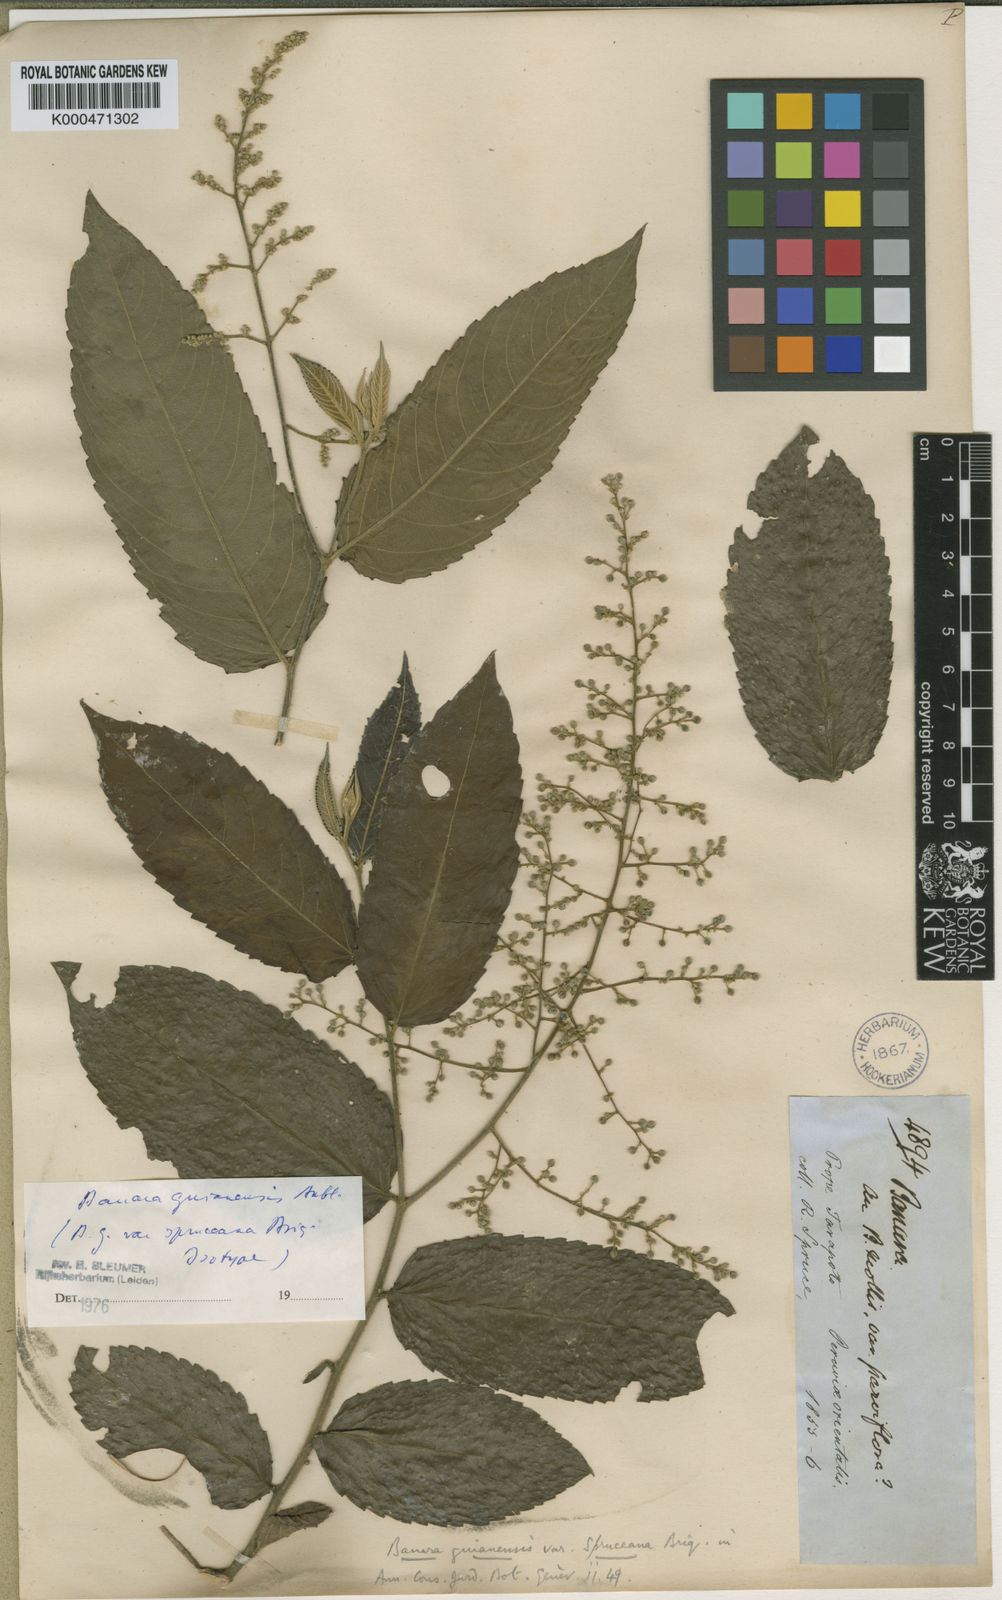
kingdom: Plantae
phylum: Tracheophyta
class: Magnoliopsida
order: Malpighiales
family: Salicaceae
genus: Banara
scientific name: Banara guianensis
